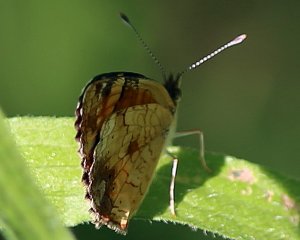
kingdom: Animalia
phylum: Arthropoda
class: Insecta
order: Lepidoptera
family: Nymphalidae
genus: Phyciodes
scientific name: Phyciodes tharos
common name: Northern Crescent
